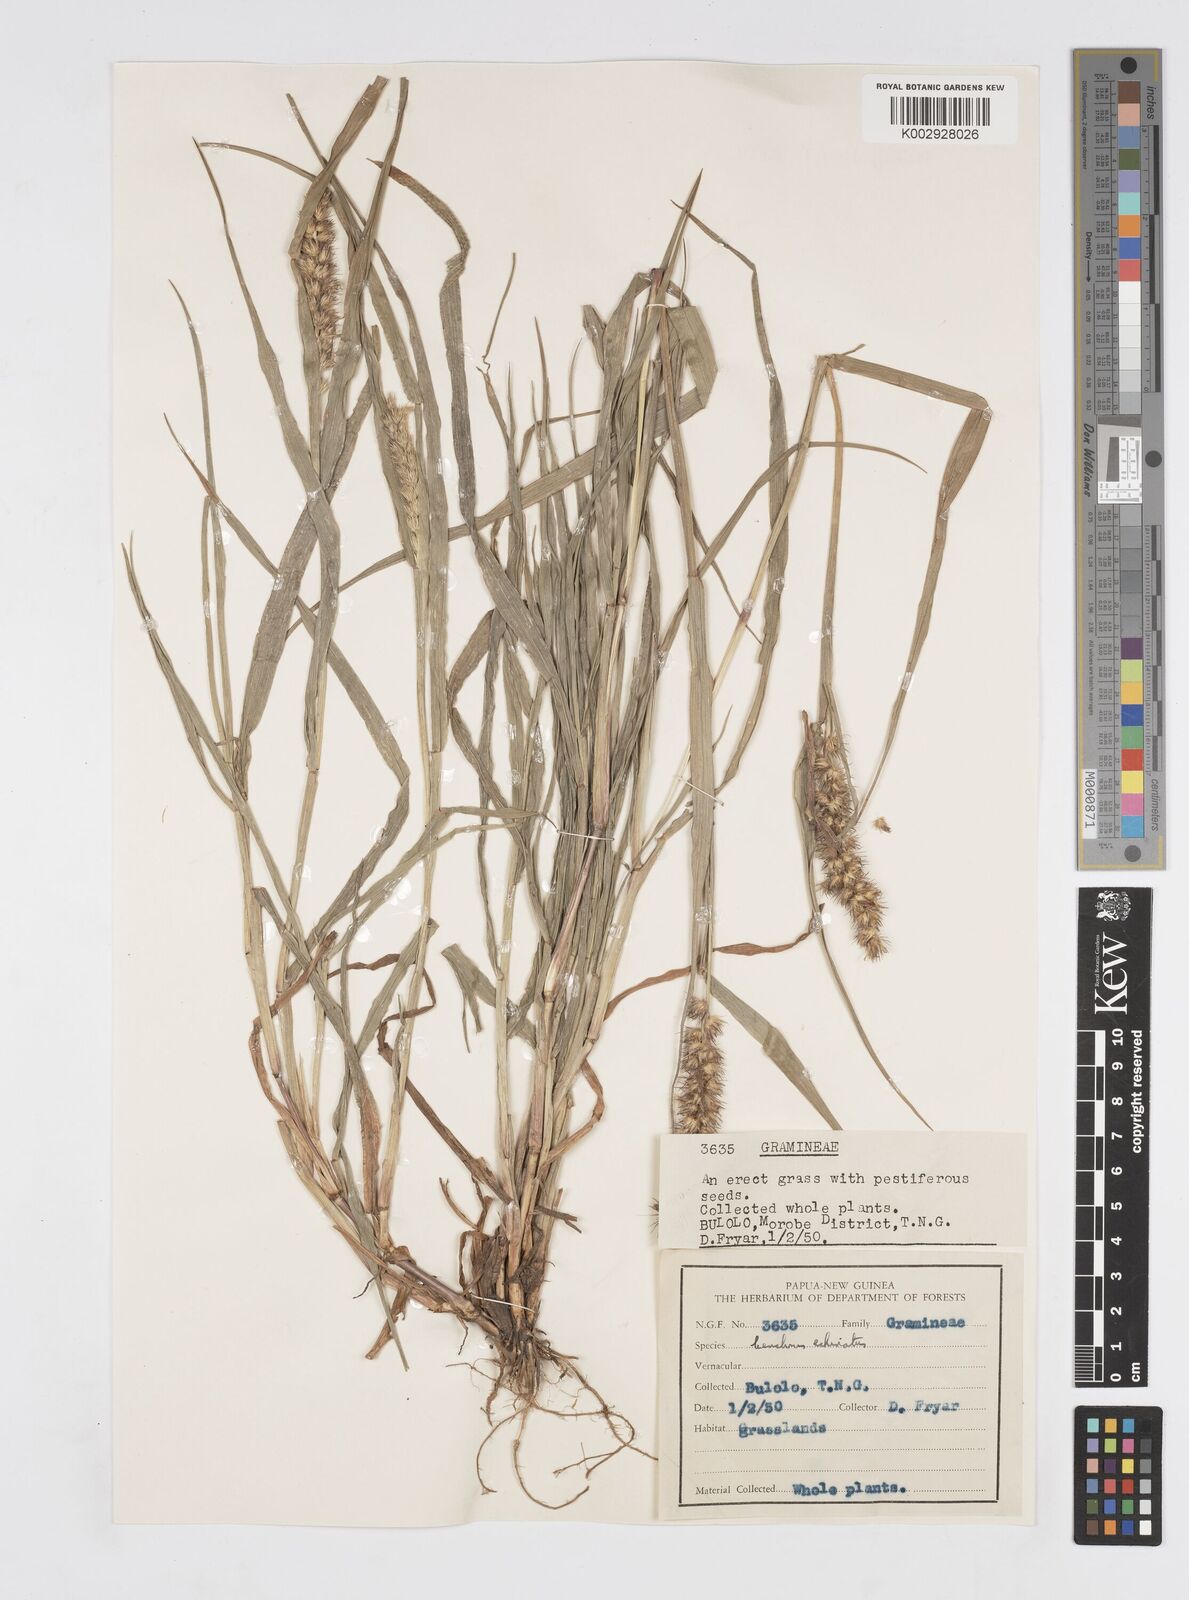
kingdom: Plantae
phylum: Tracheophyta
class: Liliopsida
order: Poales
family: Poaceae
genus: Cenchrus
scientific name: Cenchrus brownii
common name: Slim-bristle sandbur
